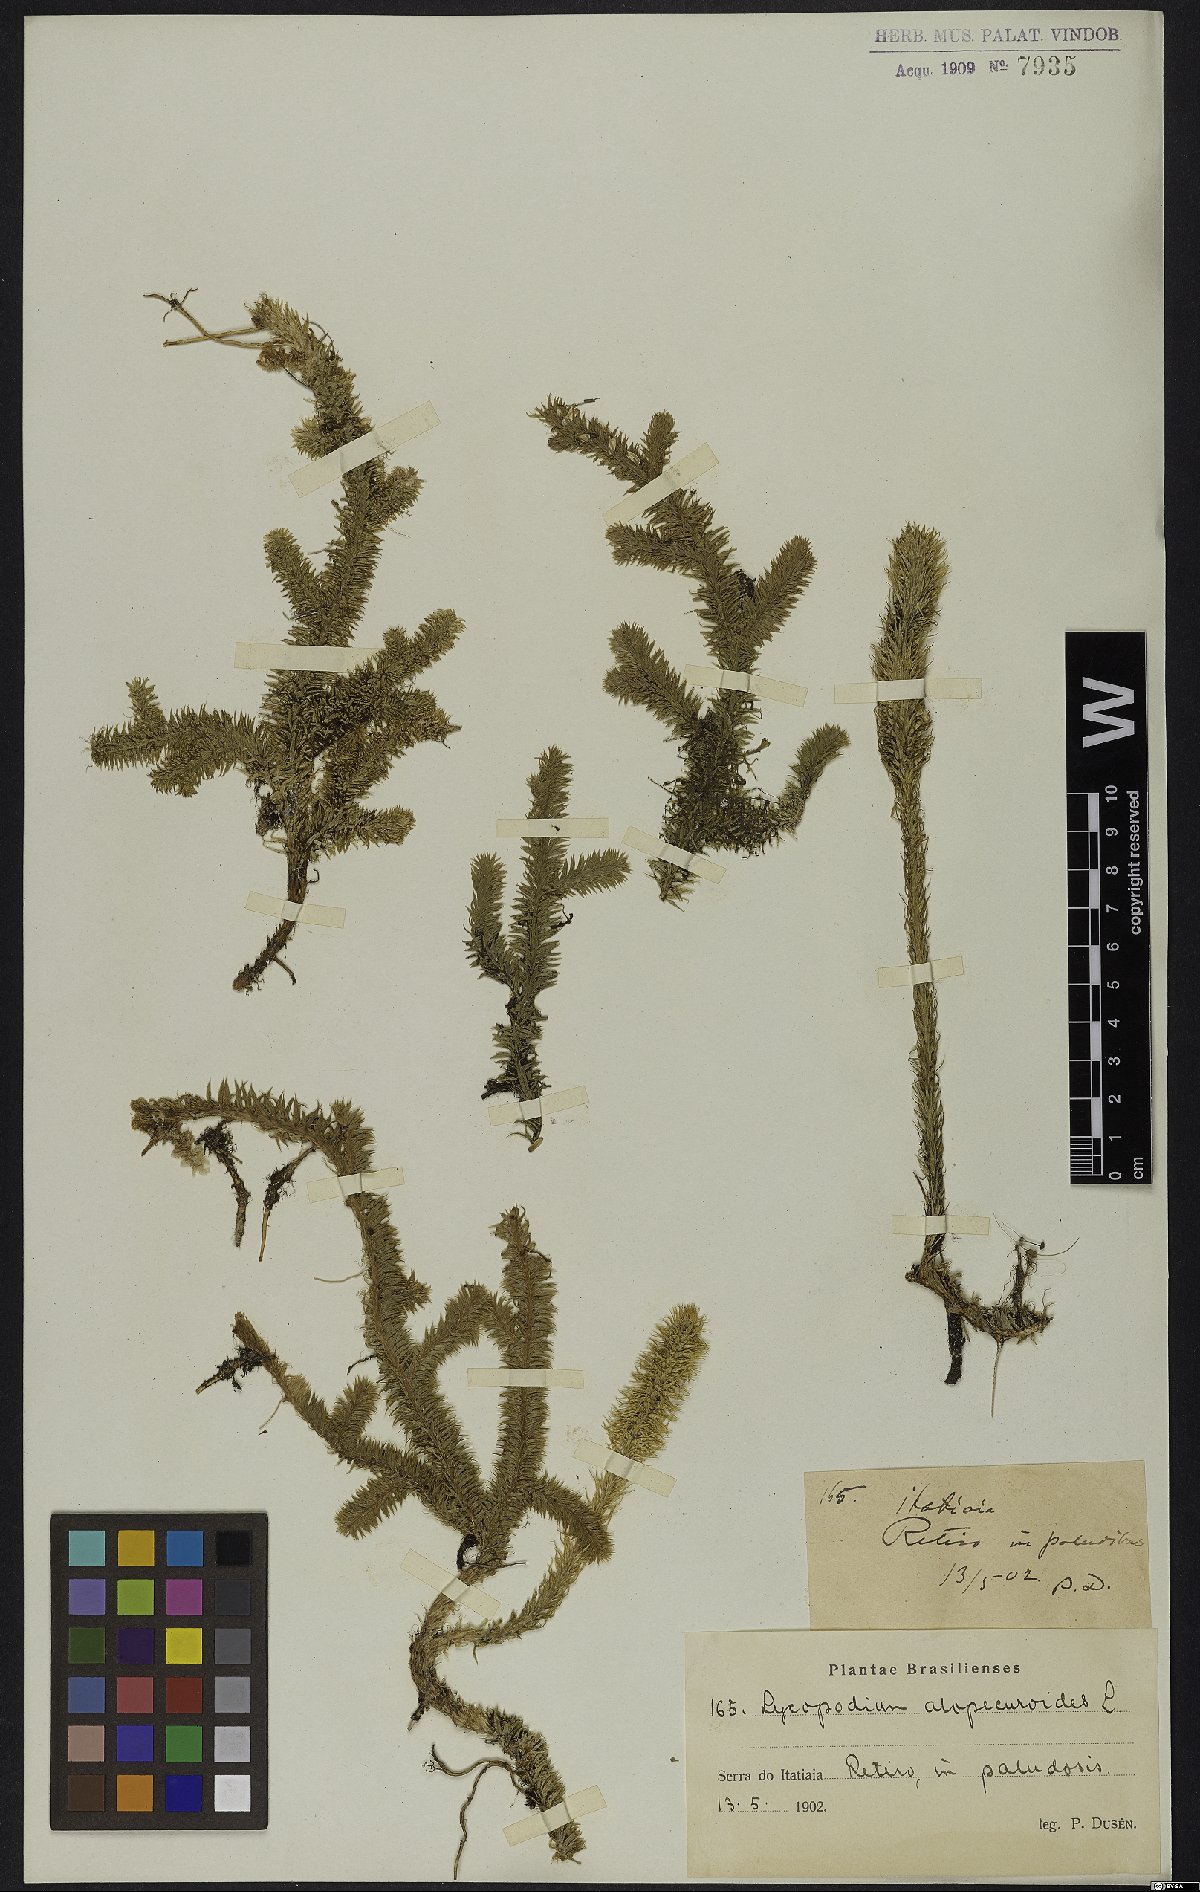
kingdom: Plantae
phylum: Tracheophyta
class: Lycopodiopsida
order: Lycopodiales
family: Lycopodiaceae
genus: Lycopodiella
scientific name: Lycopodiella alopecuroides
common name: Foxtail clubmoss
